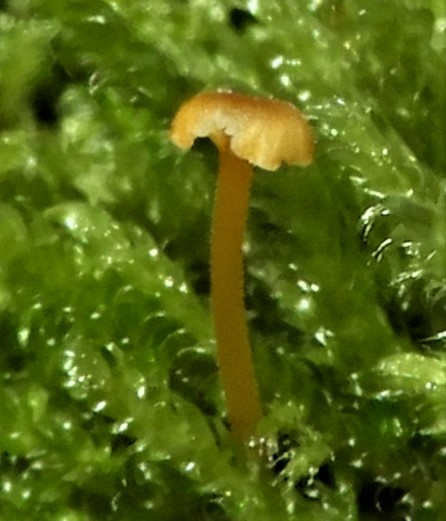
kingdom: Fungi
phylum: Basidiomycota
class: Agaricomycetes
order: Hymenochaetales
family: Rickenellaceae
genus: Rickenella
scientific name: Rickenella fibula
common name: orange mosnavlehat
